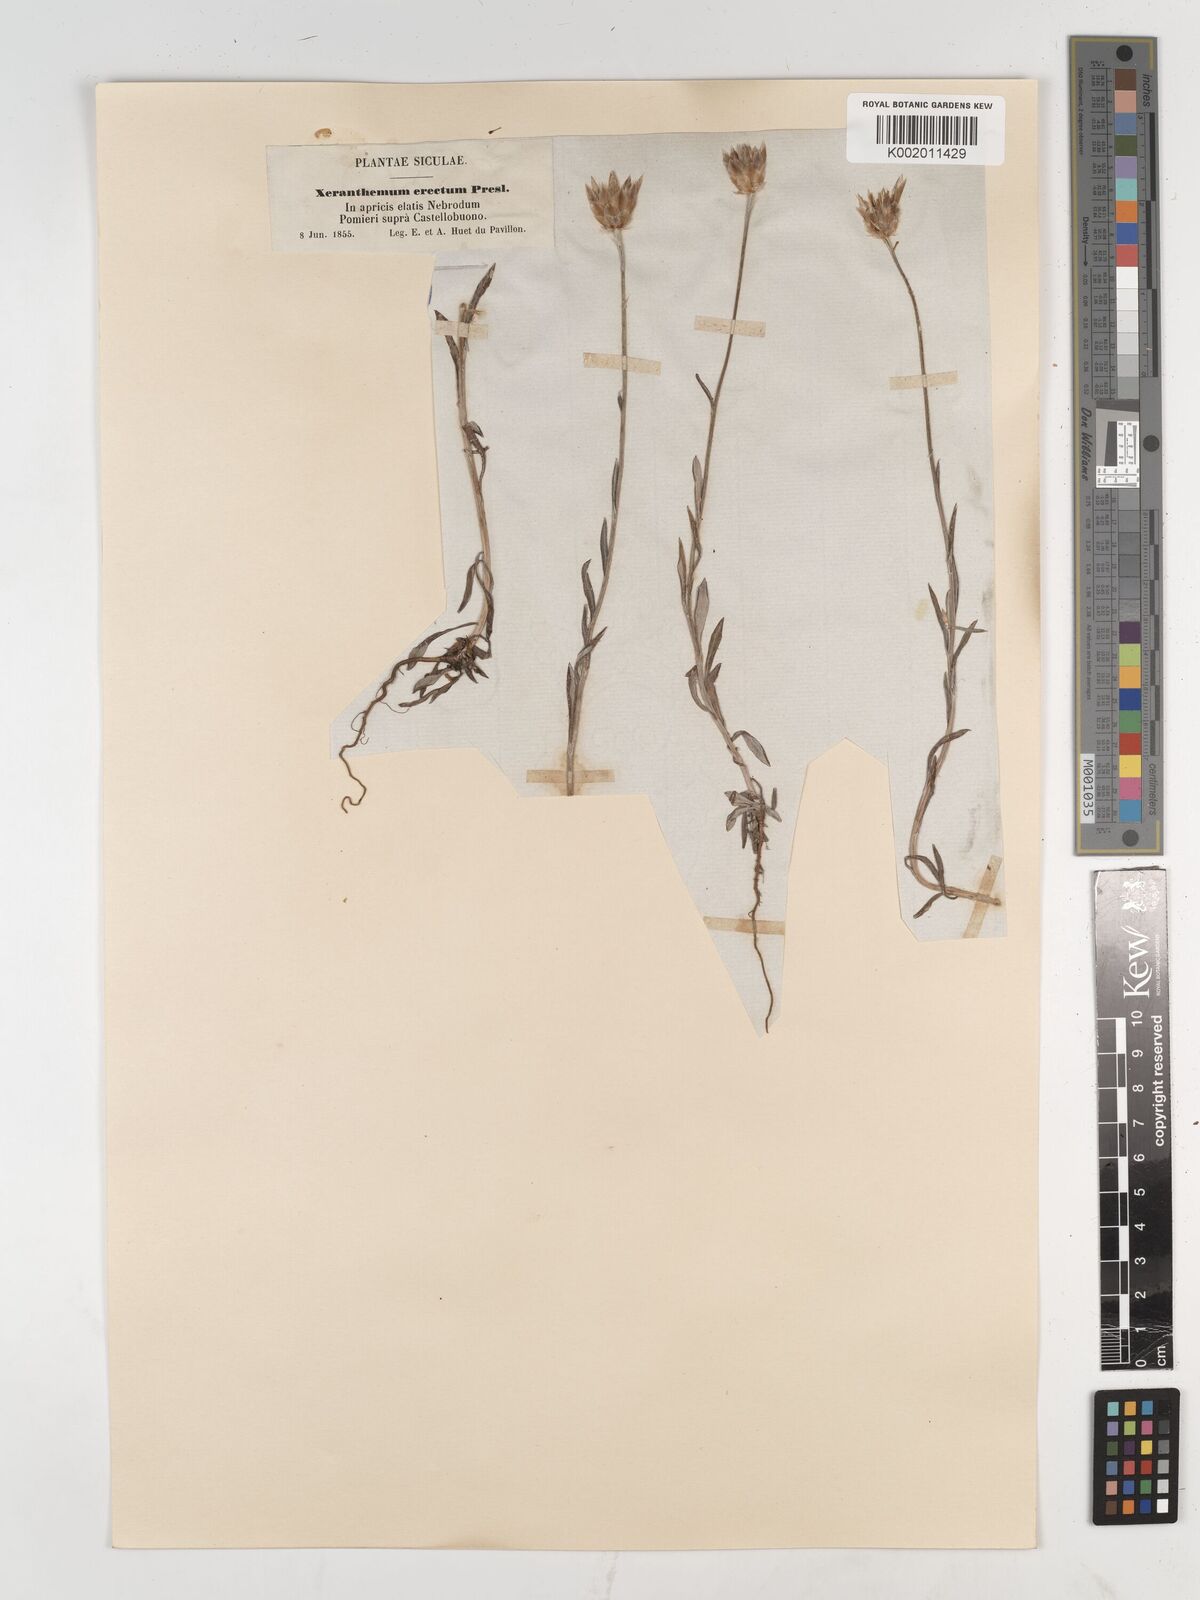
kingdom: Plantae
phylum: Tracheophyta
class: Magnoliopsida
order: Asterales
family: Asteraceae
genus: Xeranthemum
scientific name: Xeranthemum inapertum
